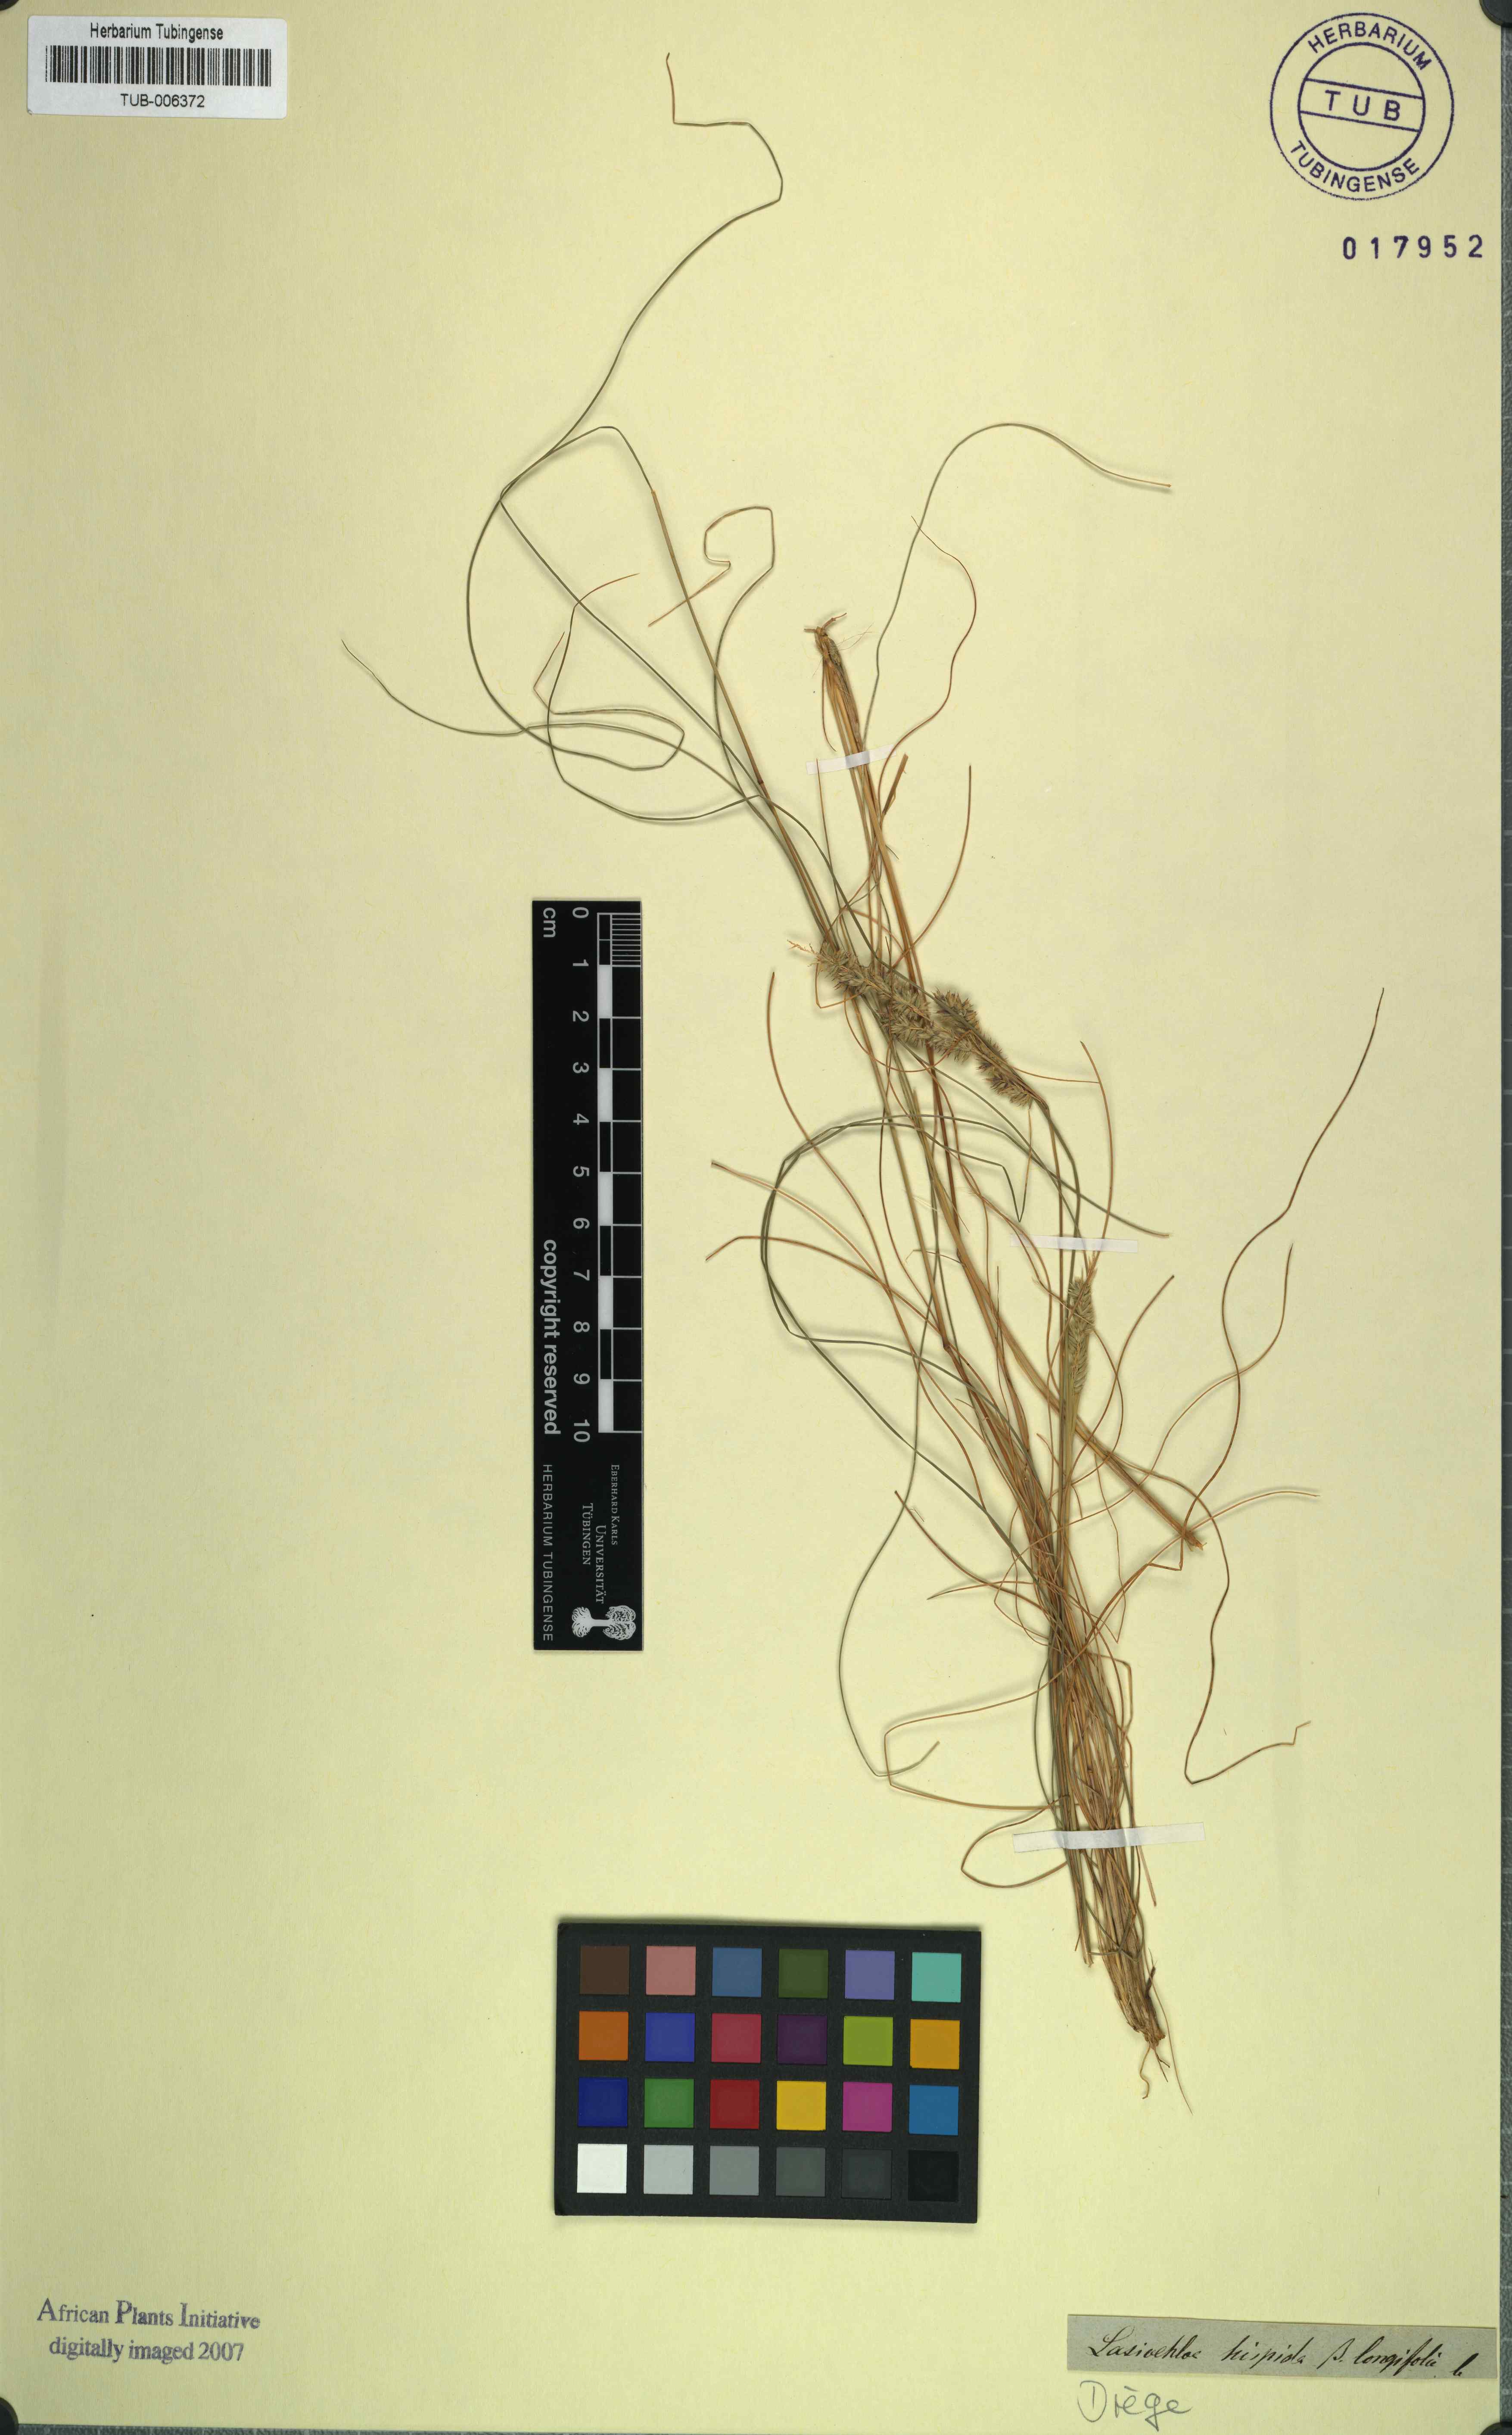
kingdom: Plantae
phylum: Tracheophyta
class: Liliopsida
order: Poales
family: Poaceae
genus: Tribolium
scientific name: Tribolium hispidum
